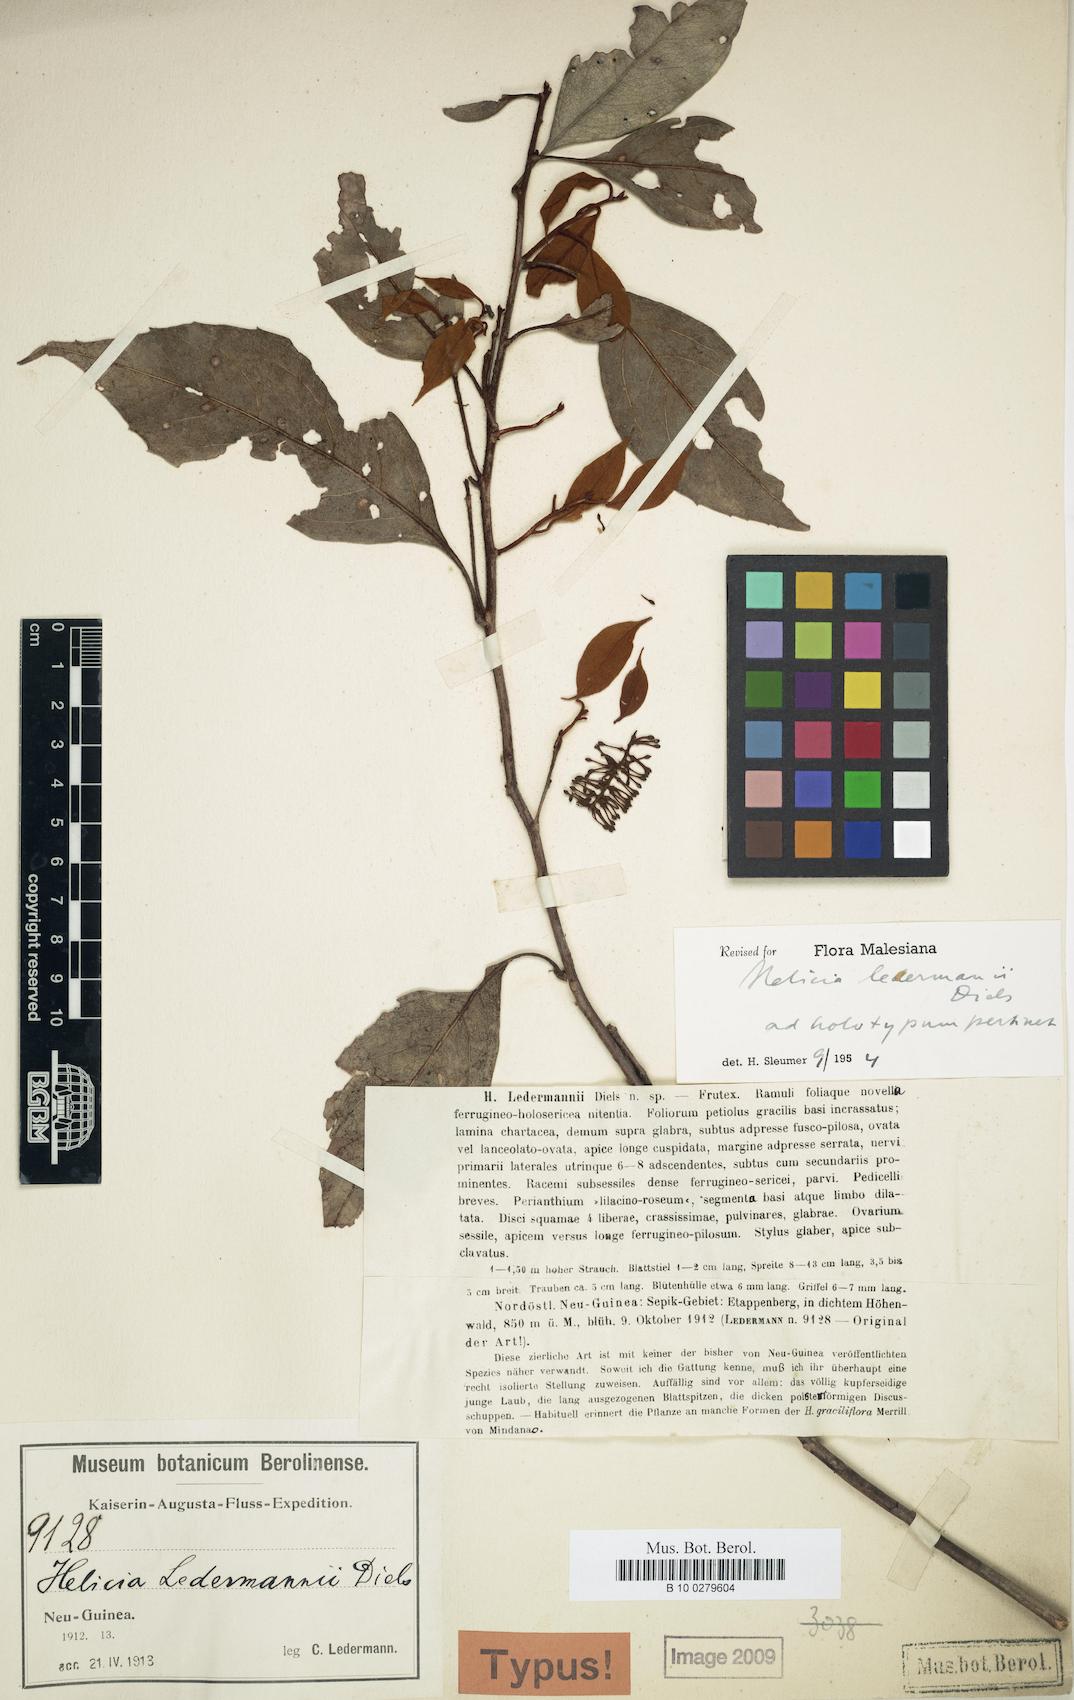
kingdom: Plantae
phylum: Tracheophyta
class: Magnoliopsida
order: Proteales
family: Proteaceae
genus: Helicia
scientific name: Helicia ledermannii
